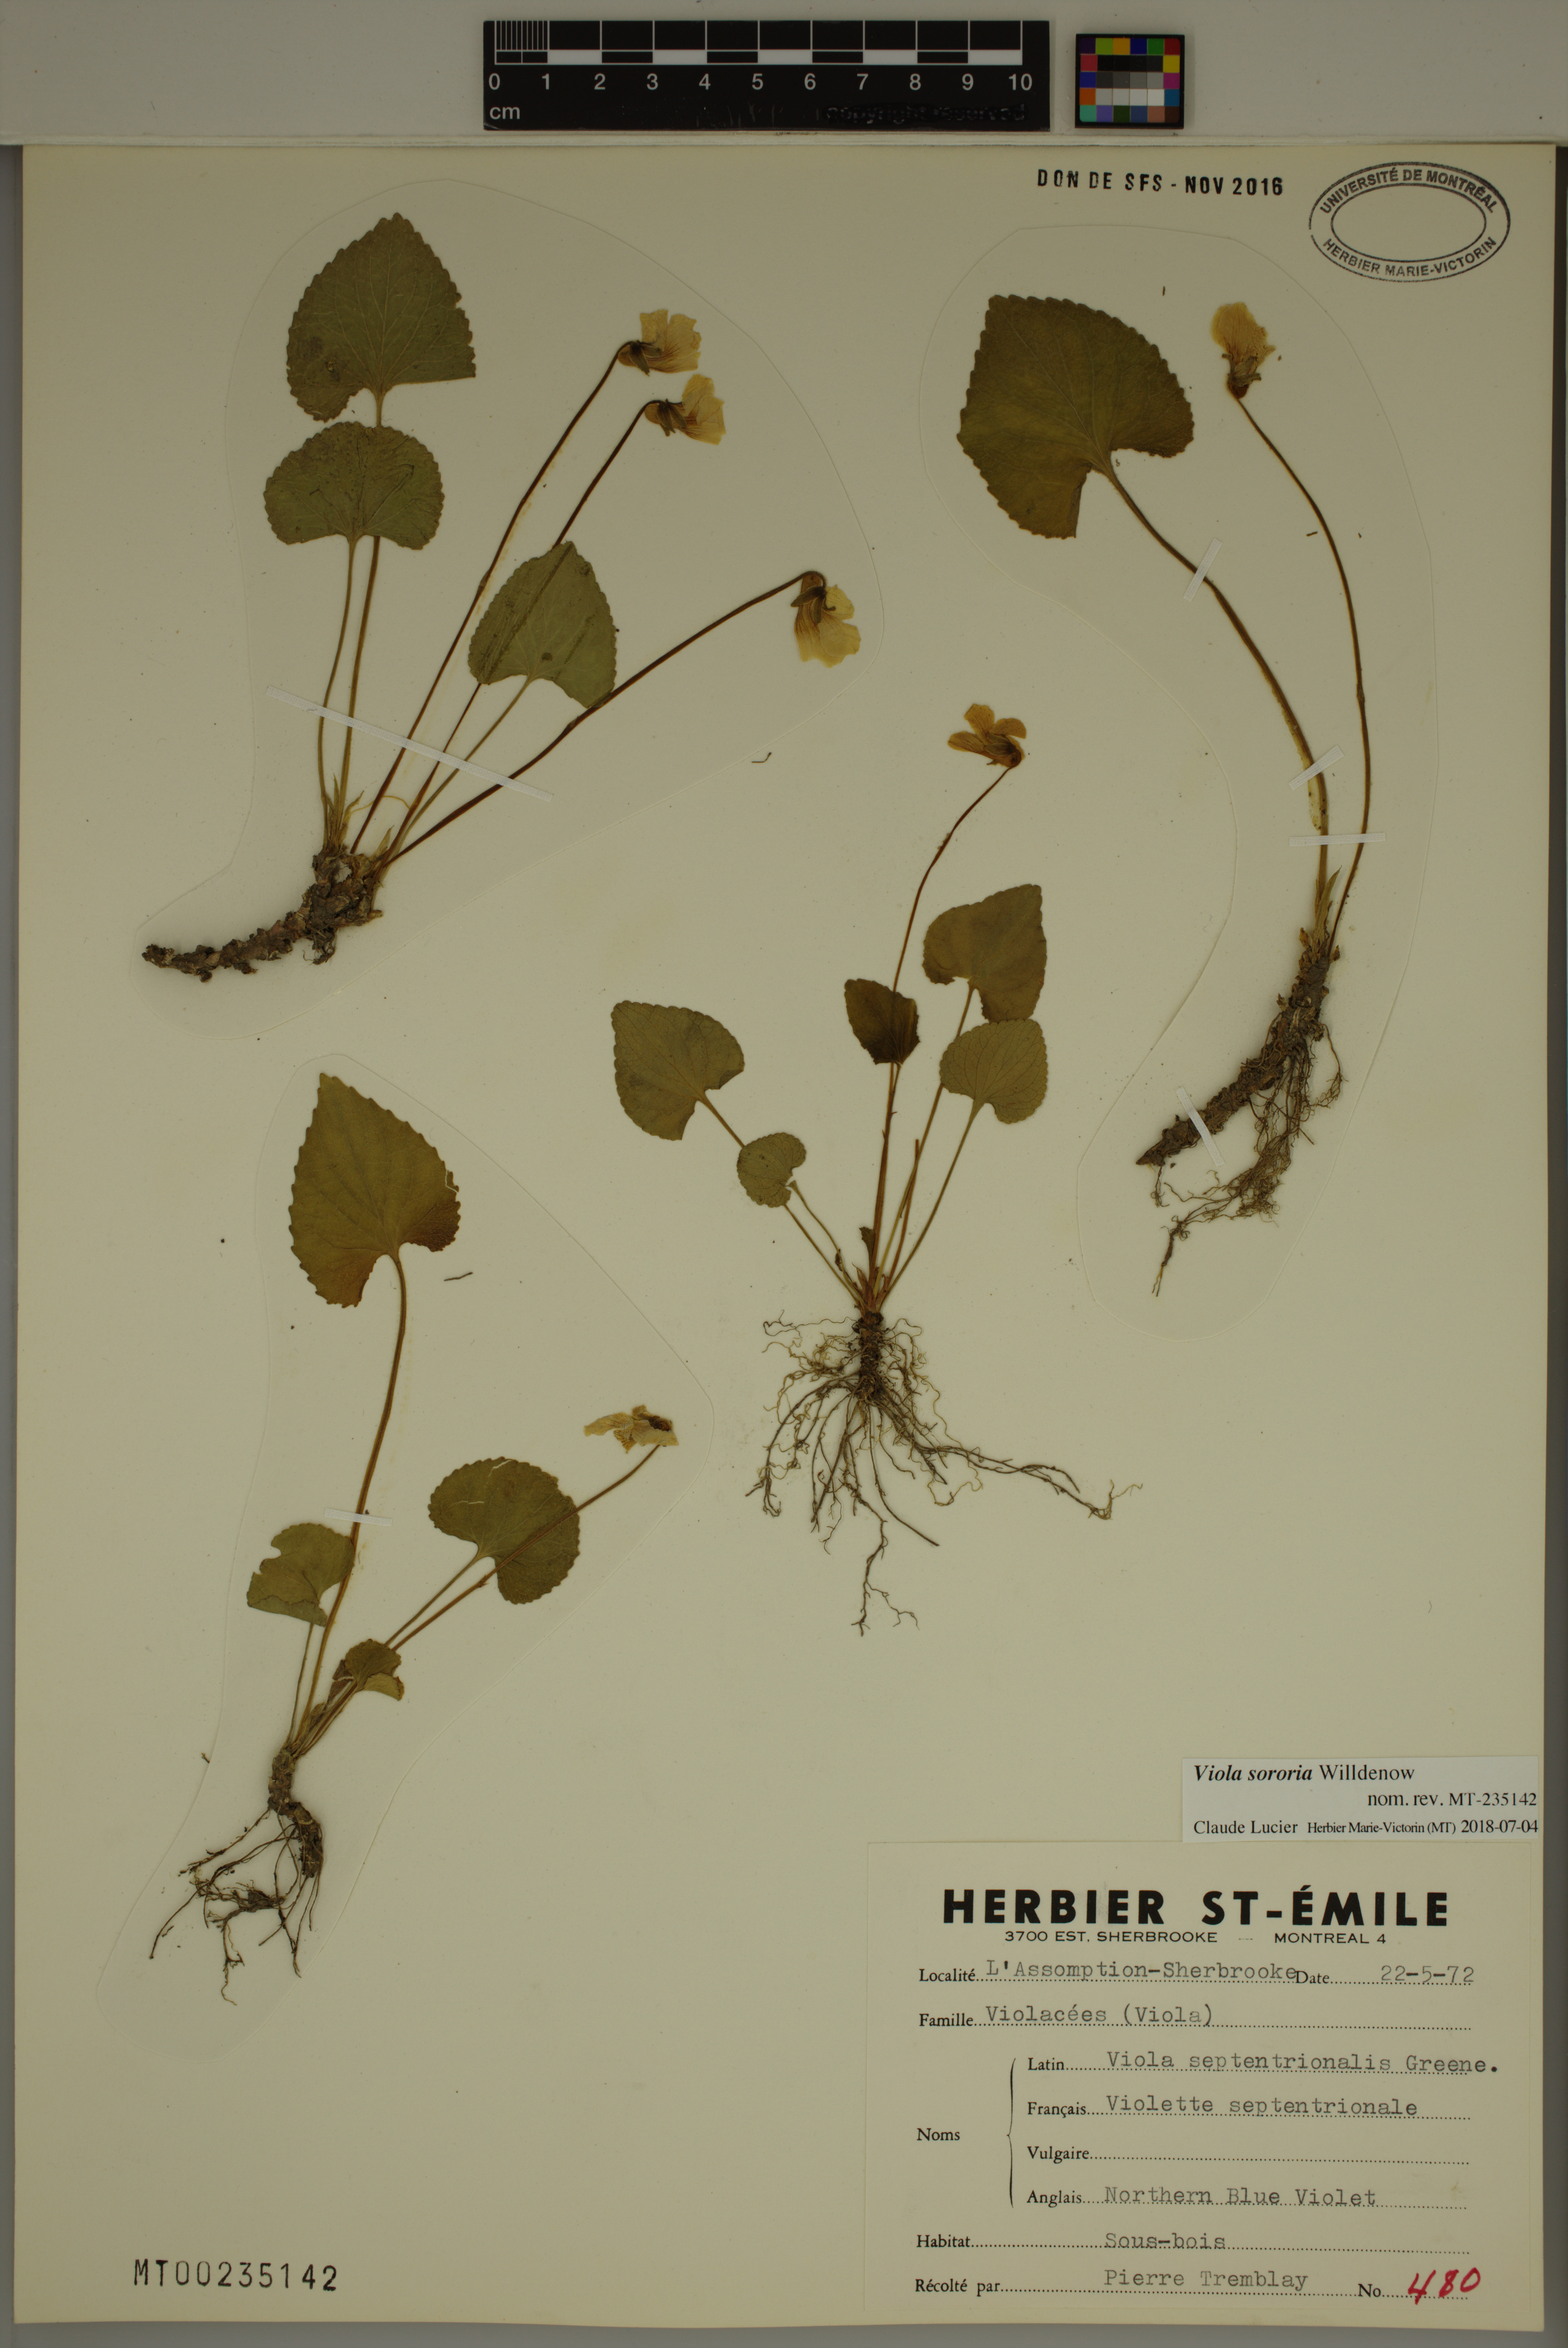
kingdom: Plantae
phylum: Tracheophyta
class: Magnoliopsida
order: Malpighiales
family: Violaceae
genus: Viola
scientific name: Viola sororia
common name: Dooryard violet
